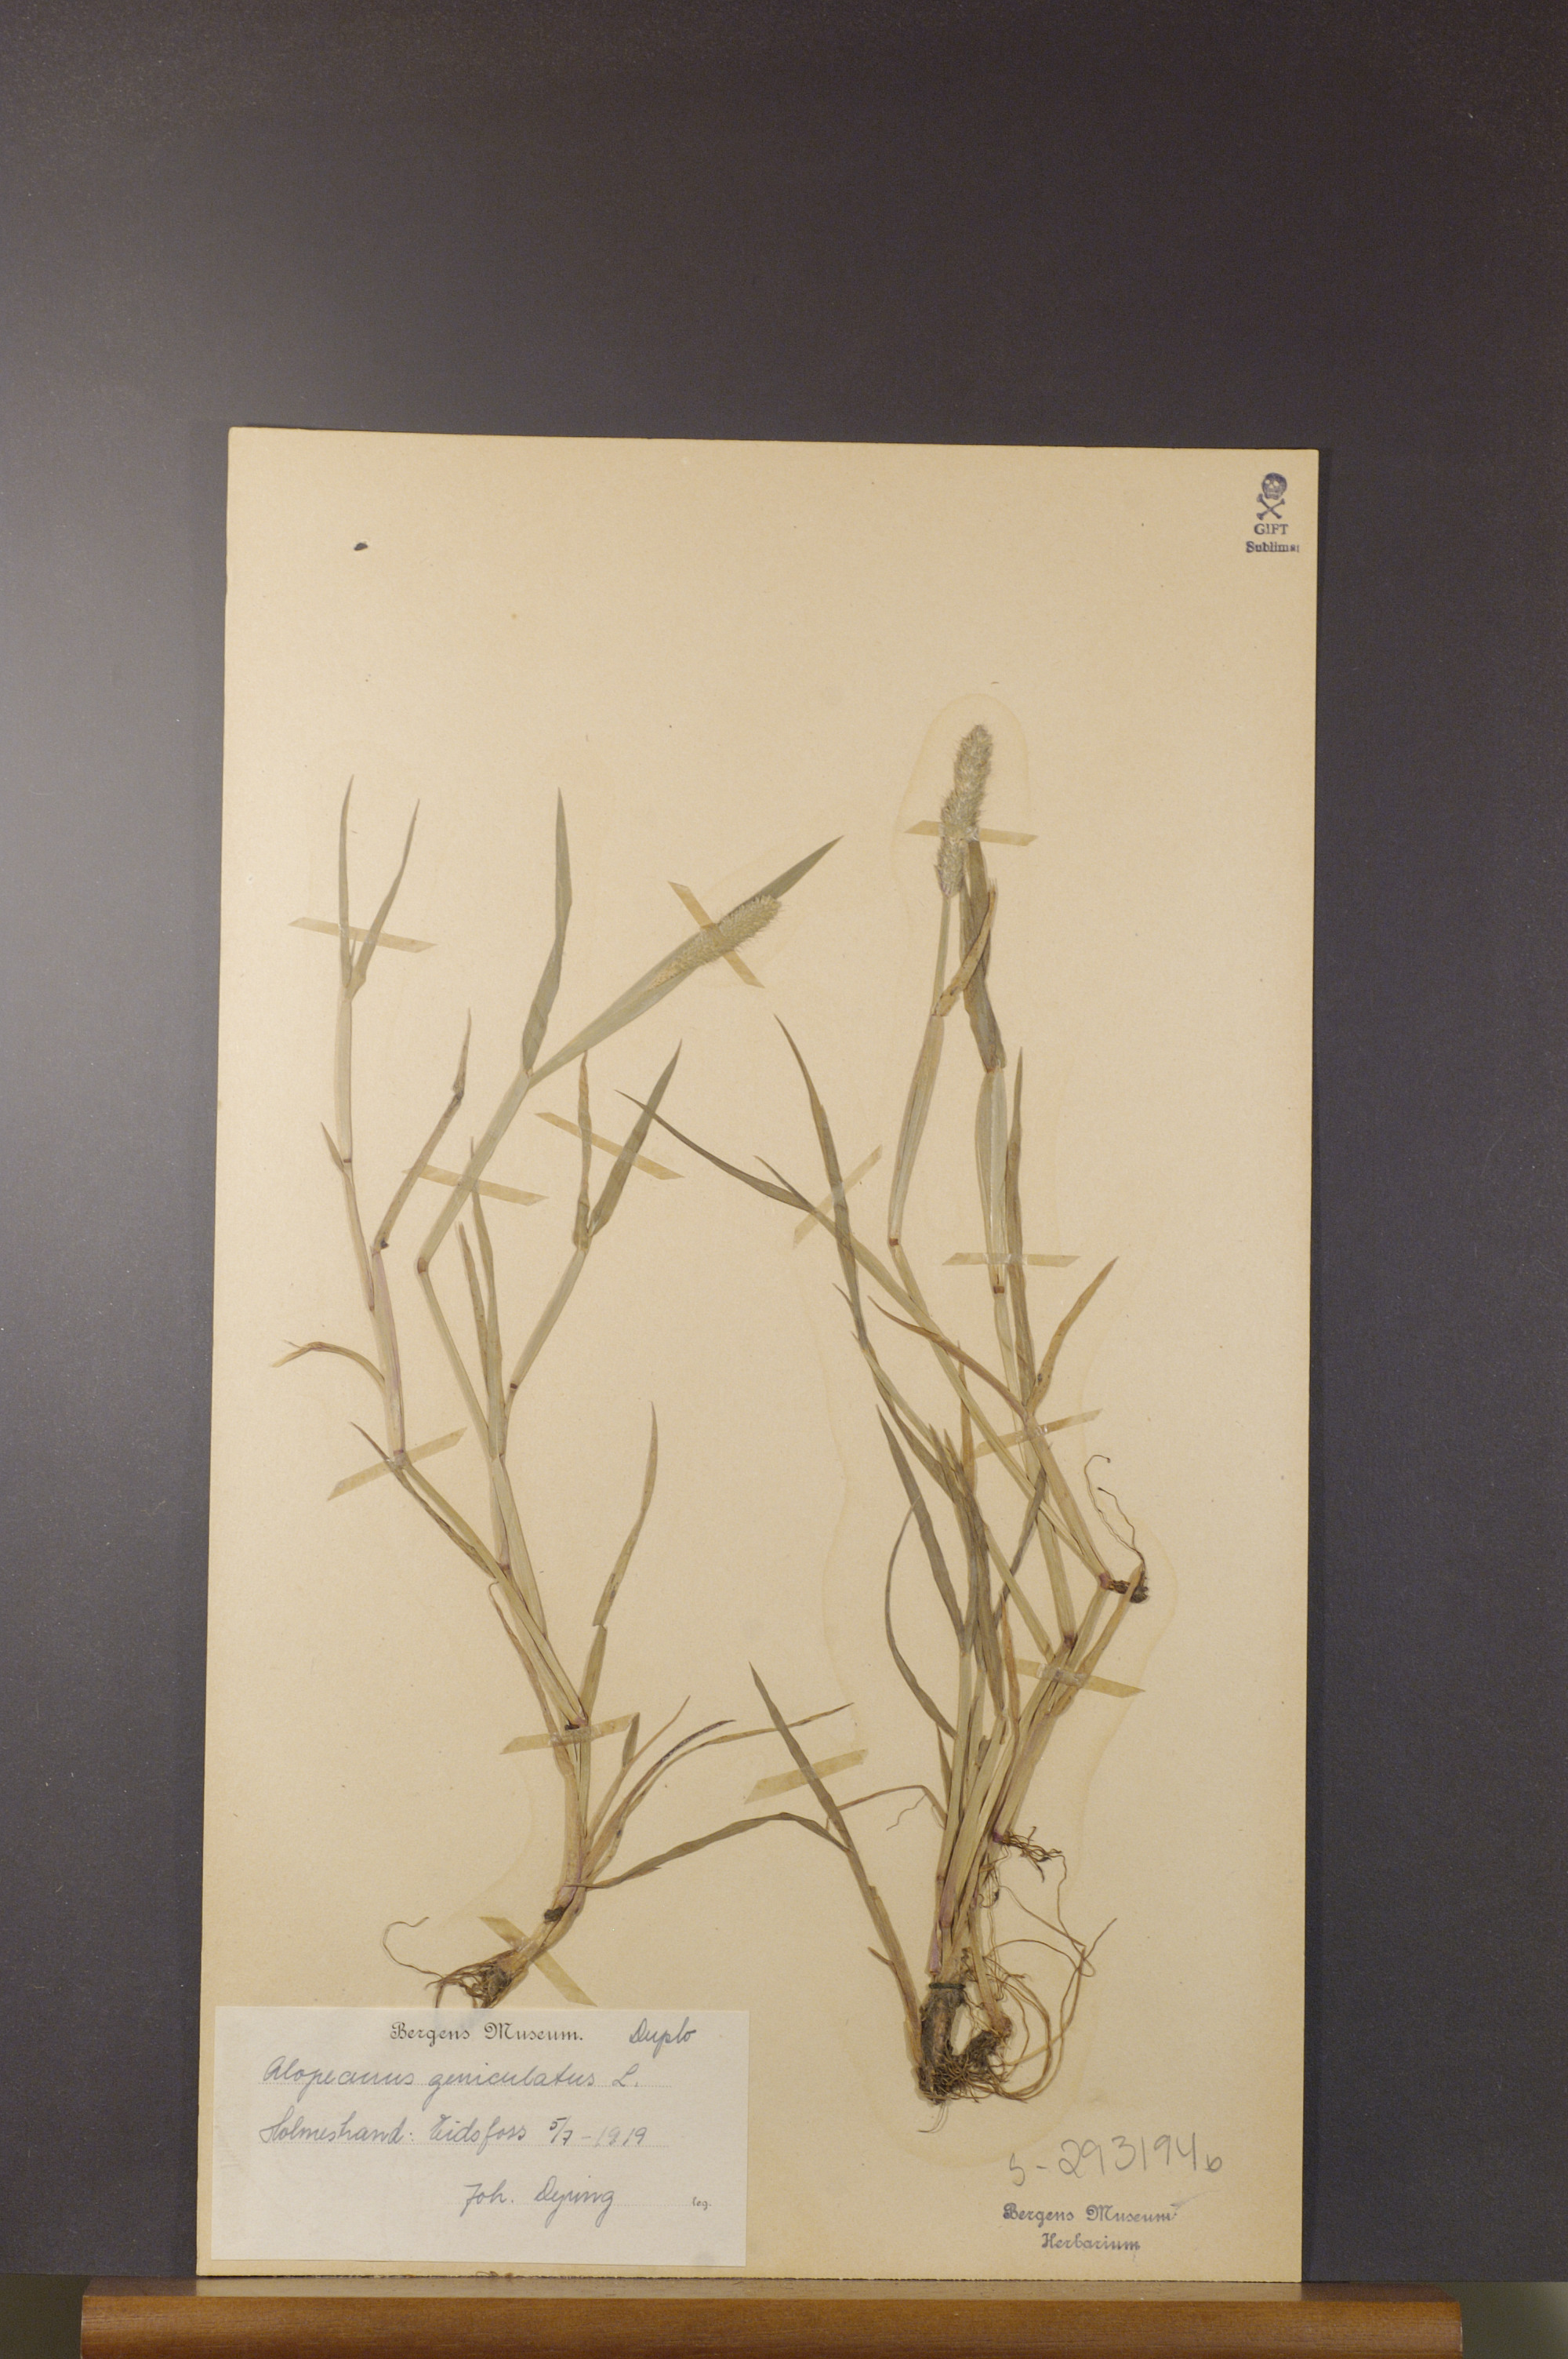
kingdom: Plantae
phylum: Tracheophyta
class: Liliopsida
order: Poales
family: Poaceae
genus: Alopecurus
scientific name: Alopecurus geniculatus
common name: Water foxtail
